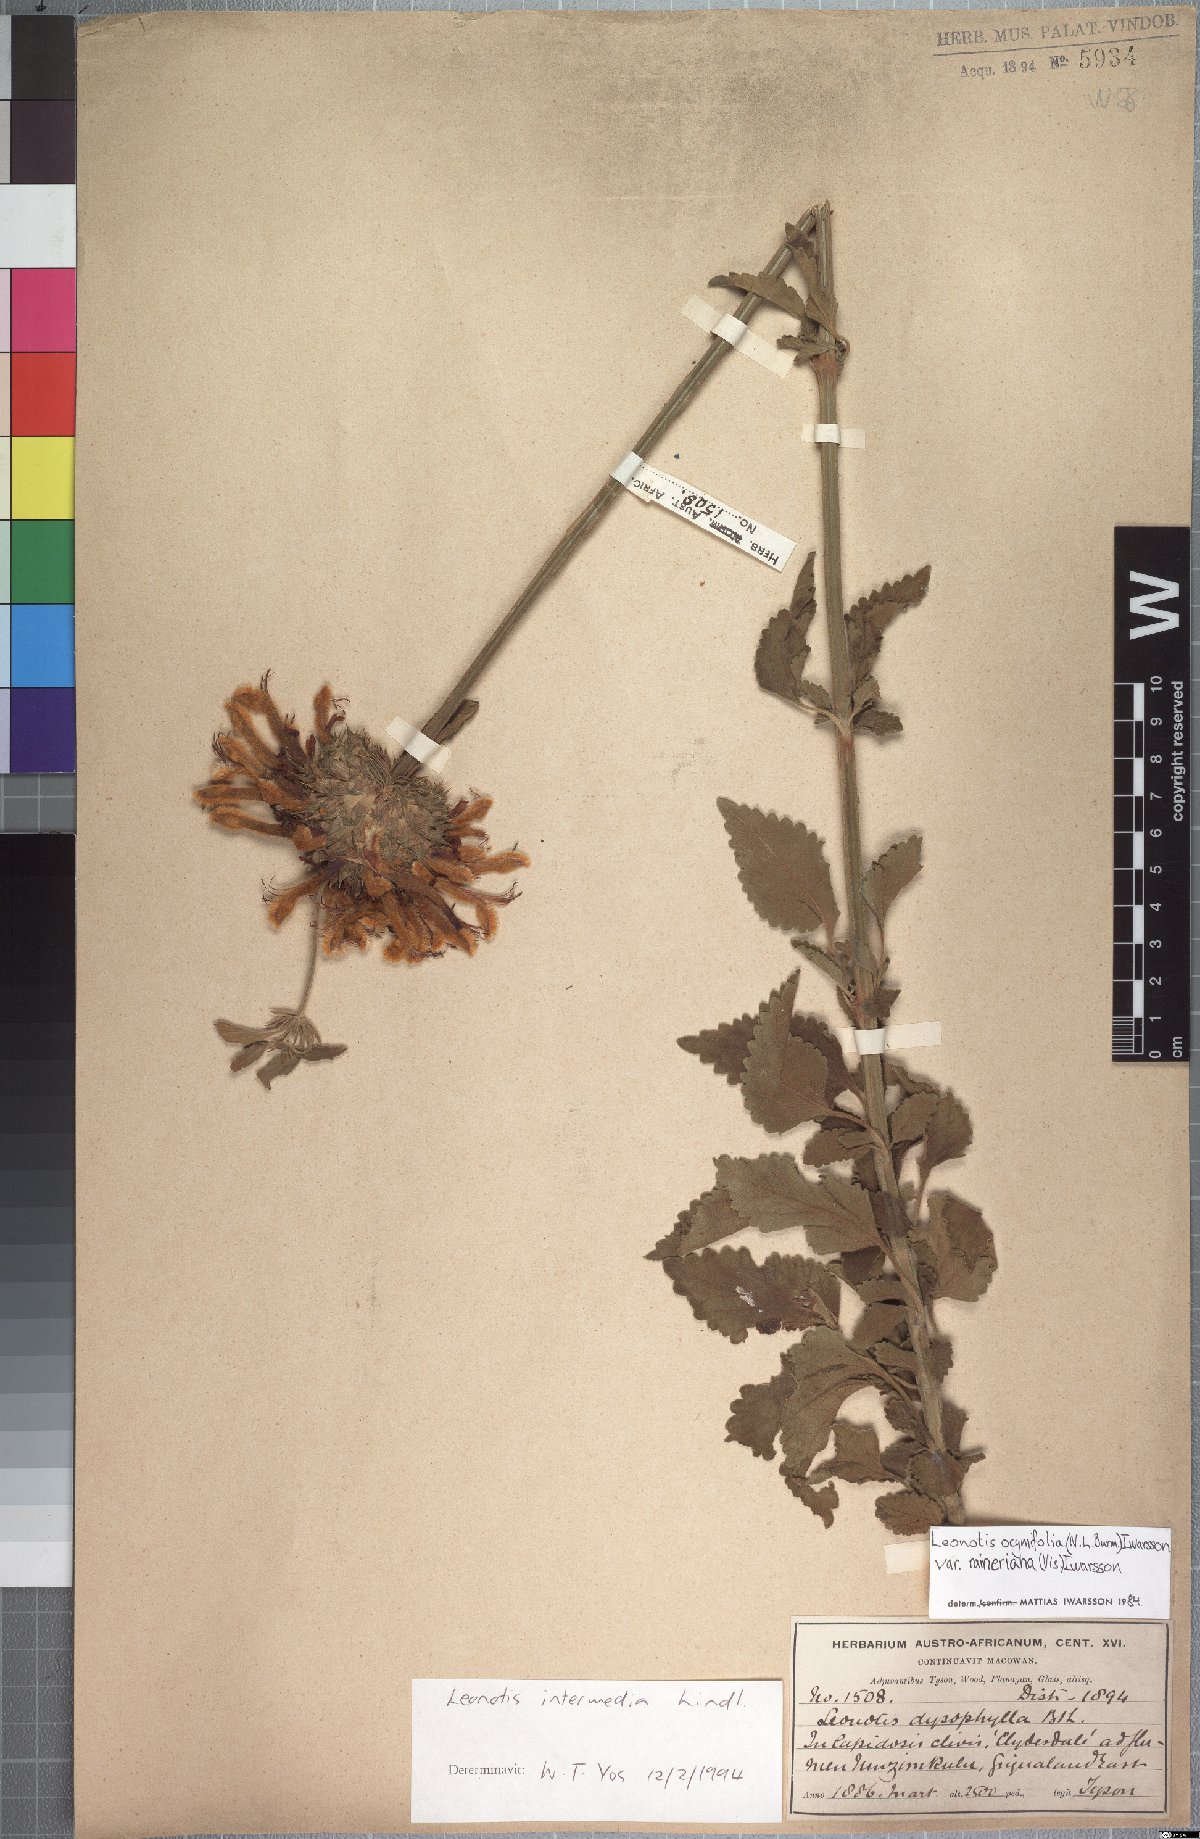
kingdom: Plantae
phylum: Tracheophyta
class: Magnoliopsida
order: Lamiales
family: Lamiaceae
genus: Leonotis
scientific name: Leonotis ocymifolia
